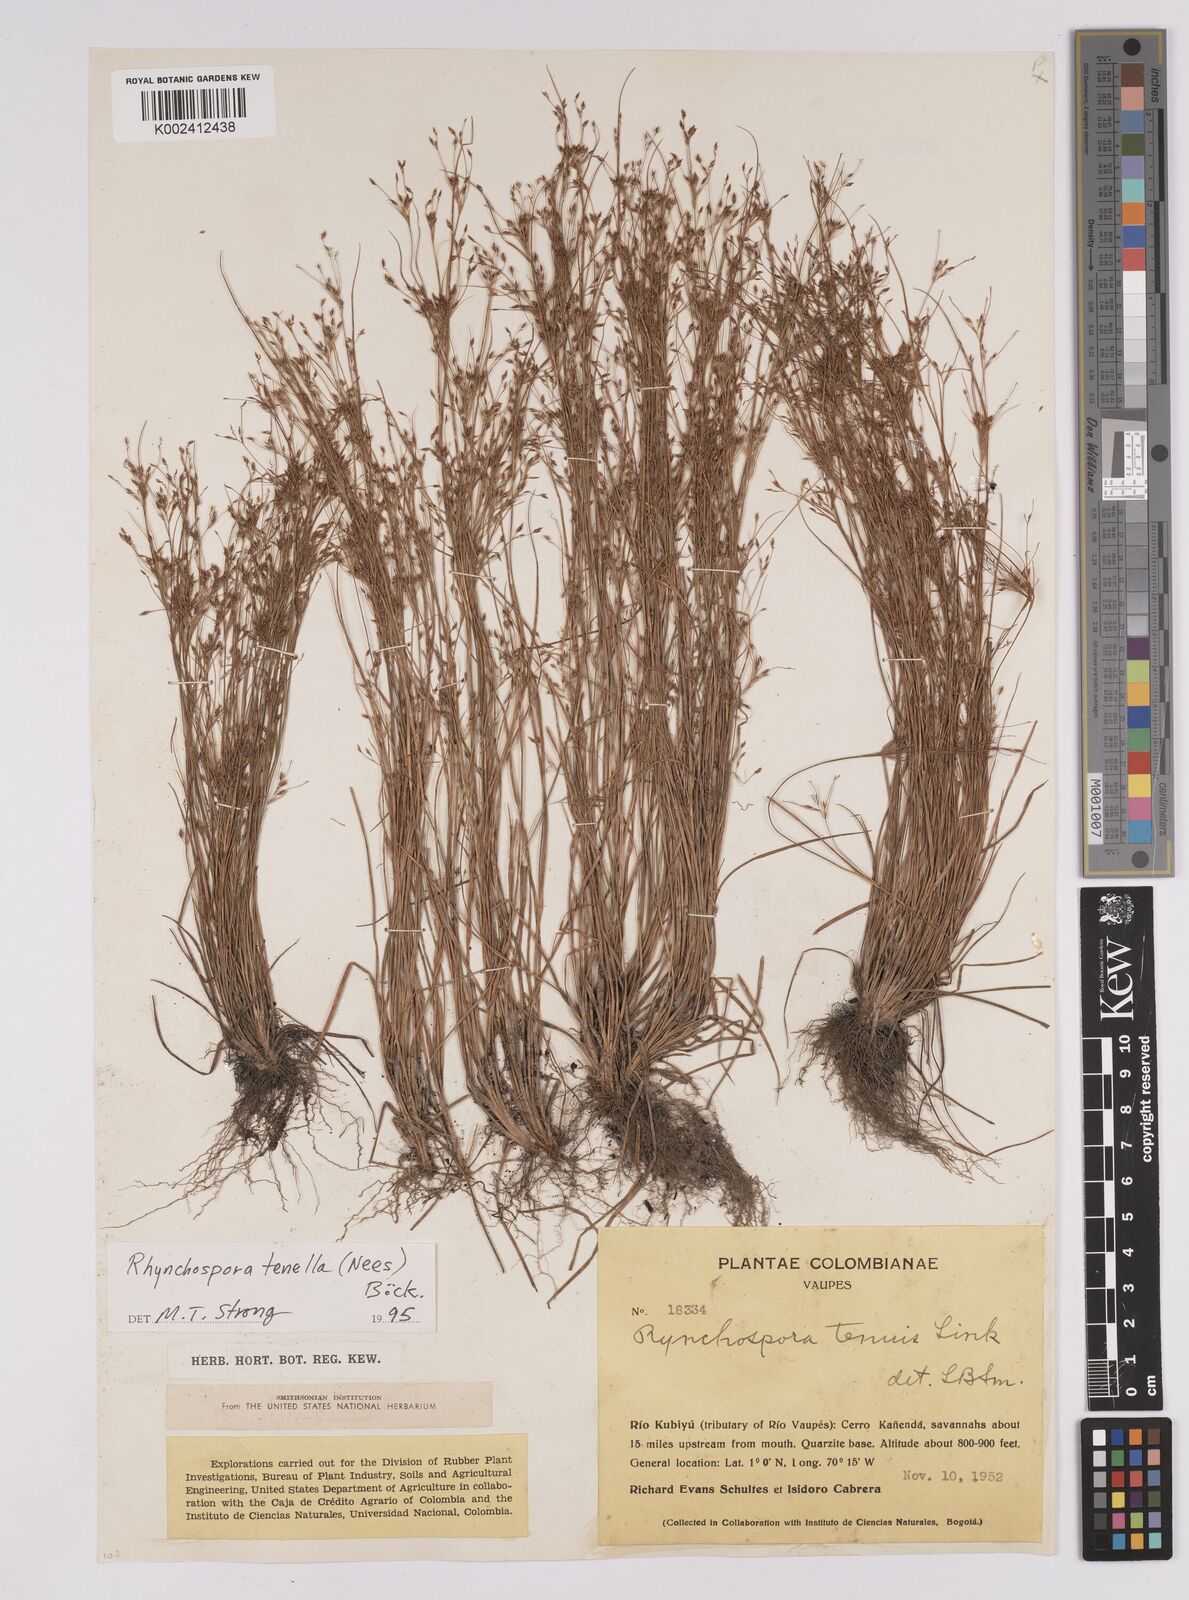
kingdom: Plantae
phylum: Tracheophyta
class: Liliopsida
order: Poales
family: Cyperaceae
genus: Rhynchospora
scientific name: Rhynchospora tenella
